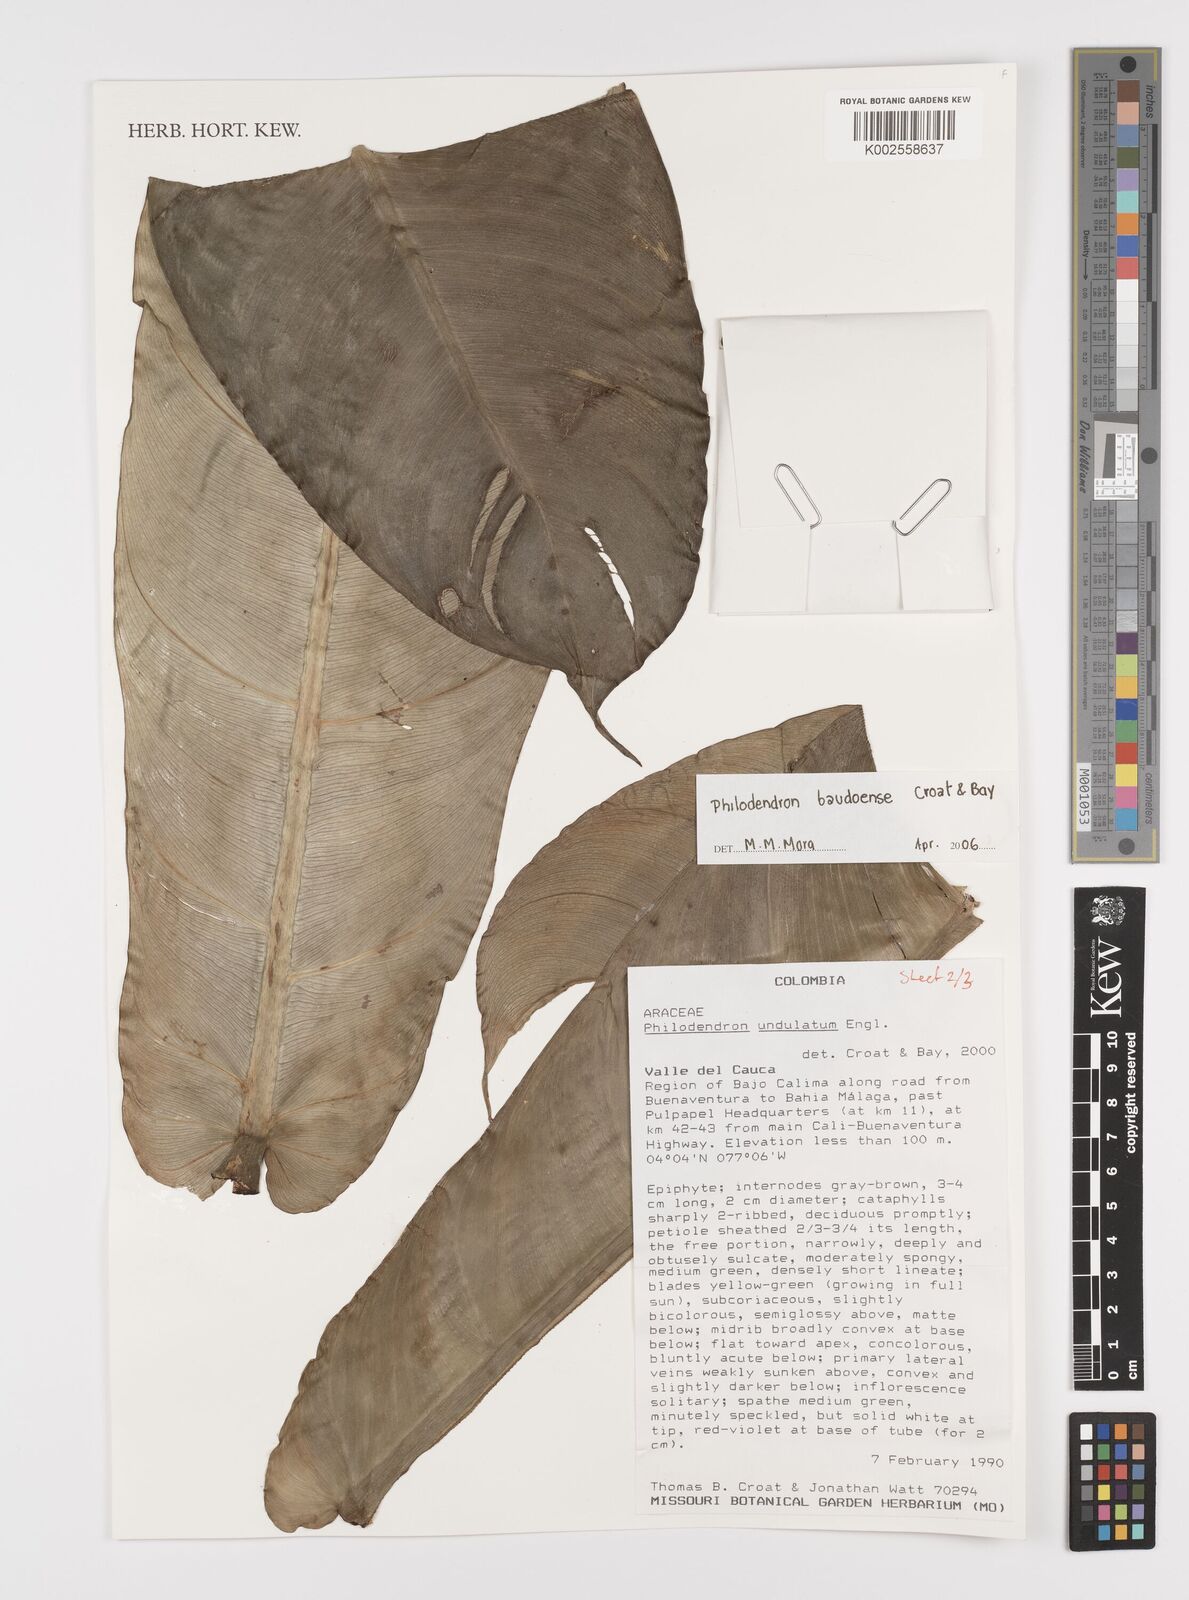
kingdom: Plantae
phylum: Tracheophyta
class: Liliopsida
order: Alismatales
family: Araceae
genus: Philodendron
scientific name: Philodendron baudoense
